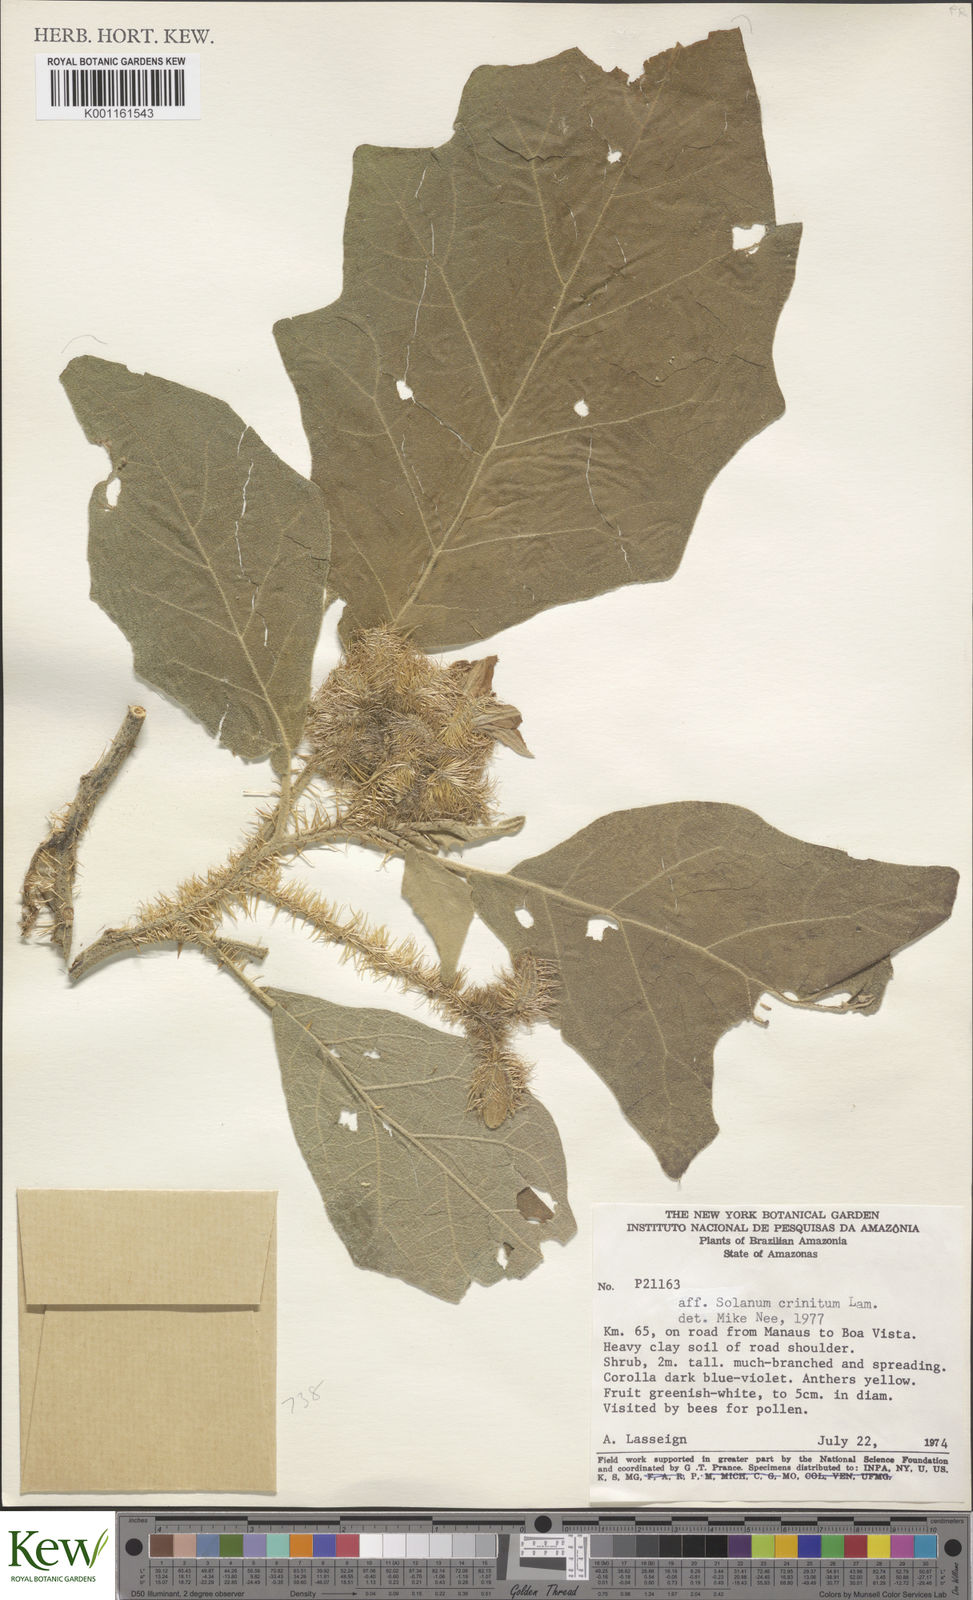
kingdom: Plantae
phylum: Tracheophyta
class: Magnoliopsida
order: Solanales
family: Solanaceae
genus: Solanum
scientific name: Solanum crinitum
